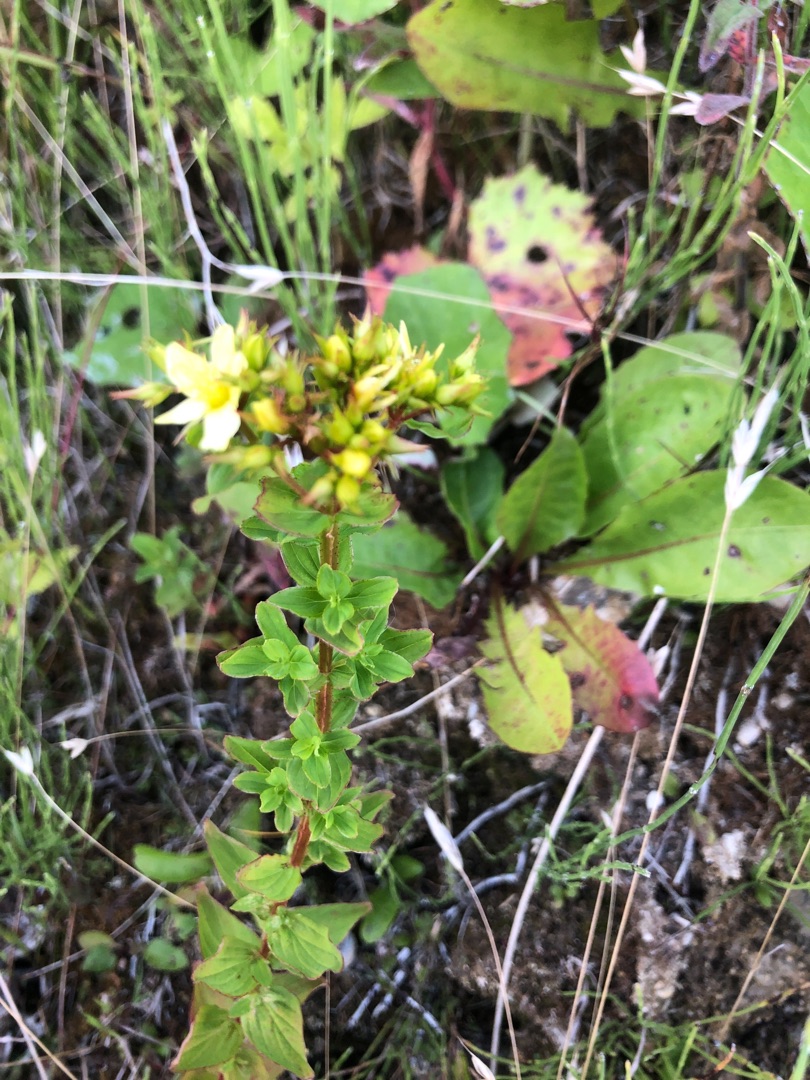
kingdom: Plantae
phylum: Tracheophyta
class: Magnoliopsida
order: Malpighiales
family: Hypericaceae
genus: Hypericum
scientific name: Hypericum tetrapterum
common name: Vinget perikon
